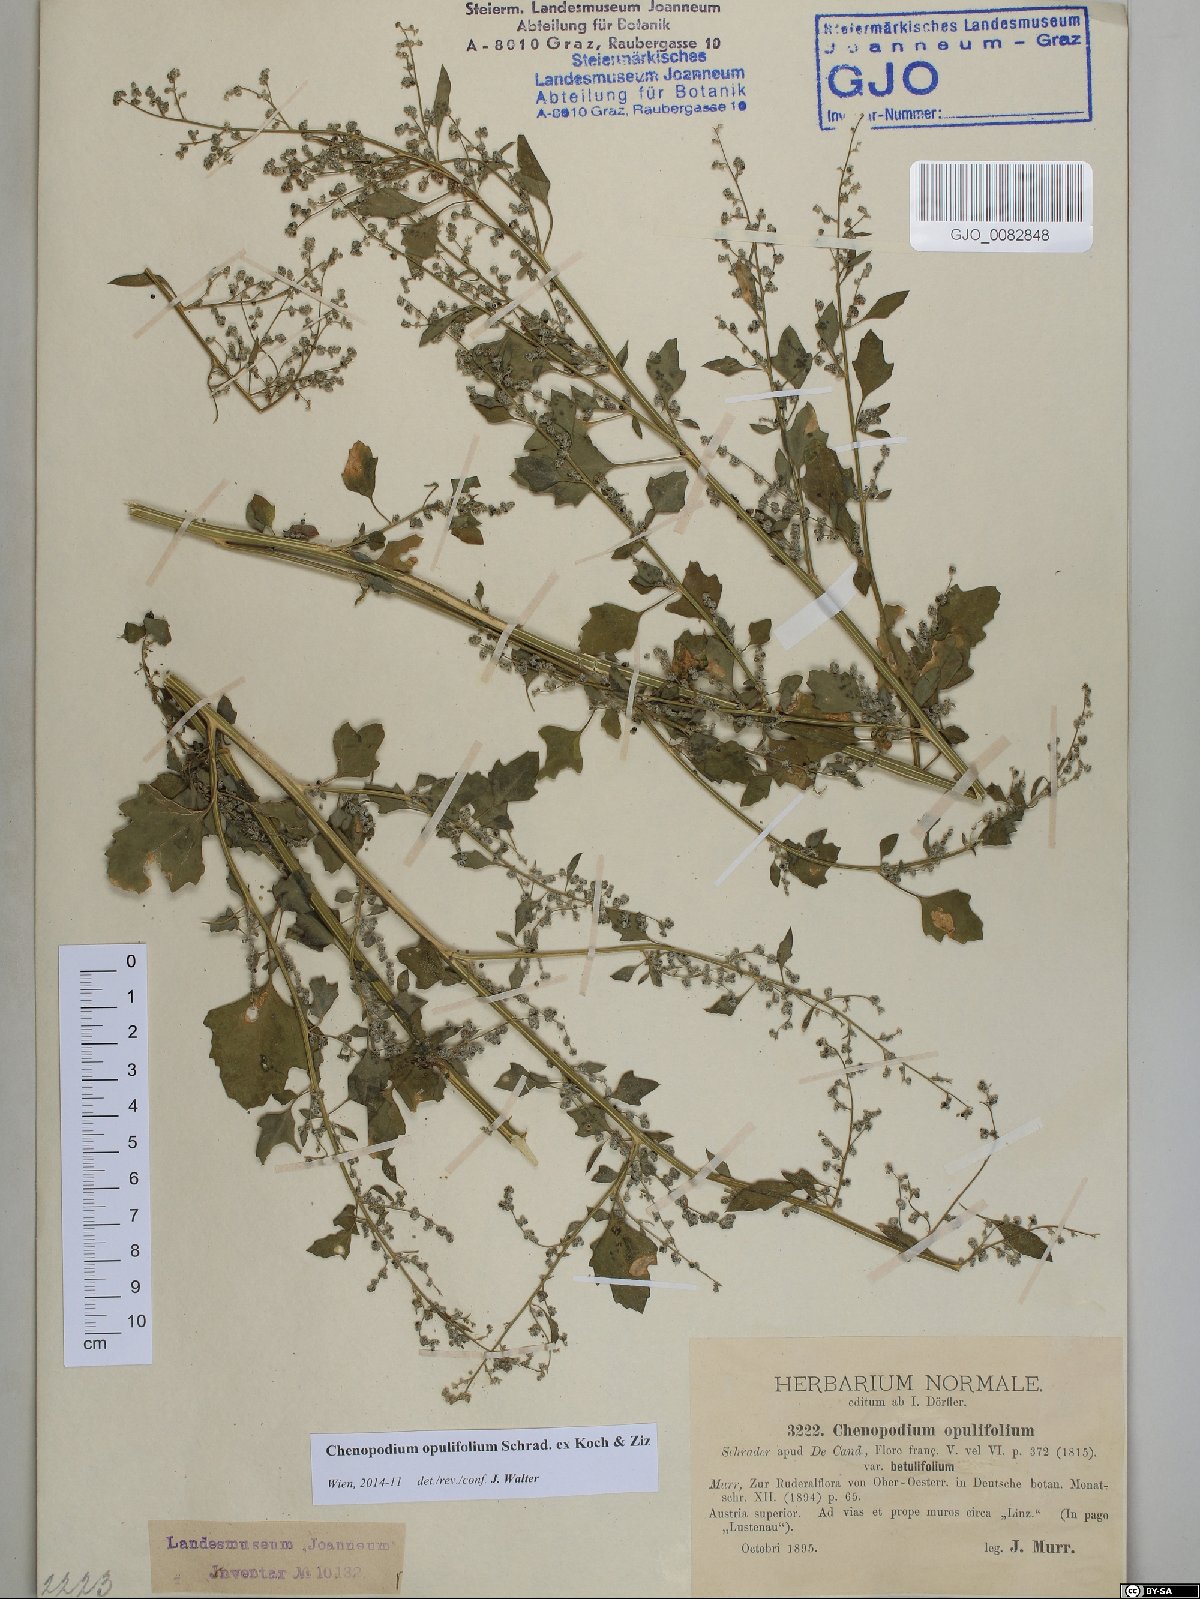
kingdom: Plantae
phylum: Tracheophyta
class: Magnoliopsida
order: Caryophyllales
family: Amaranthaceae
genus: Chenopodium
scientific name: Chenopodium opulifolium
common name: Grey goosefoot
